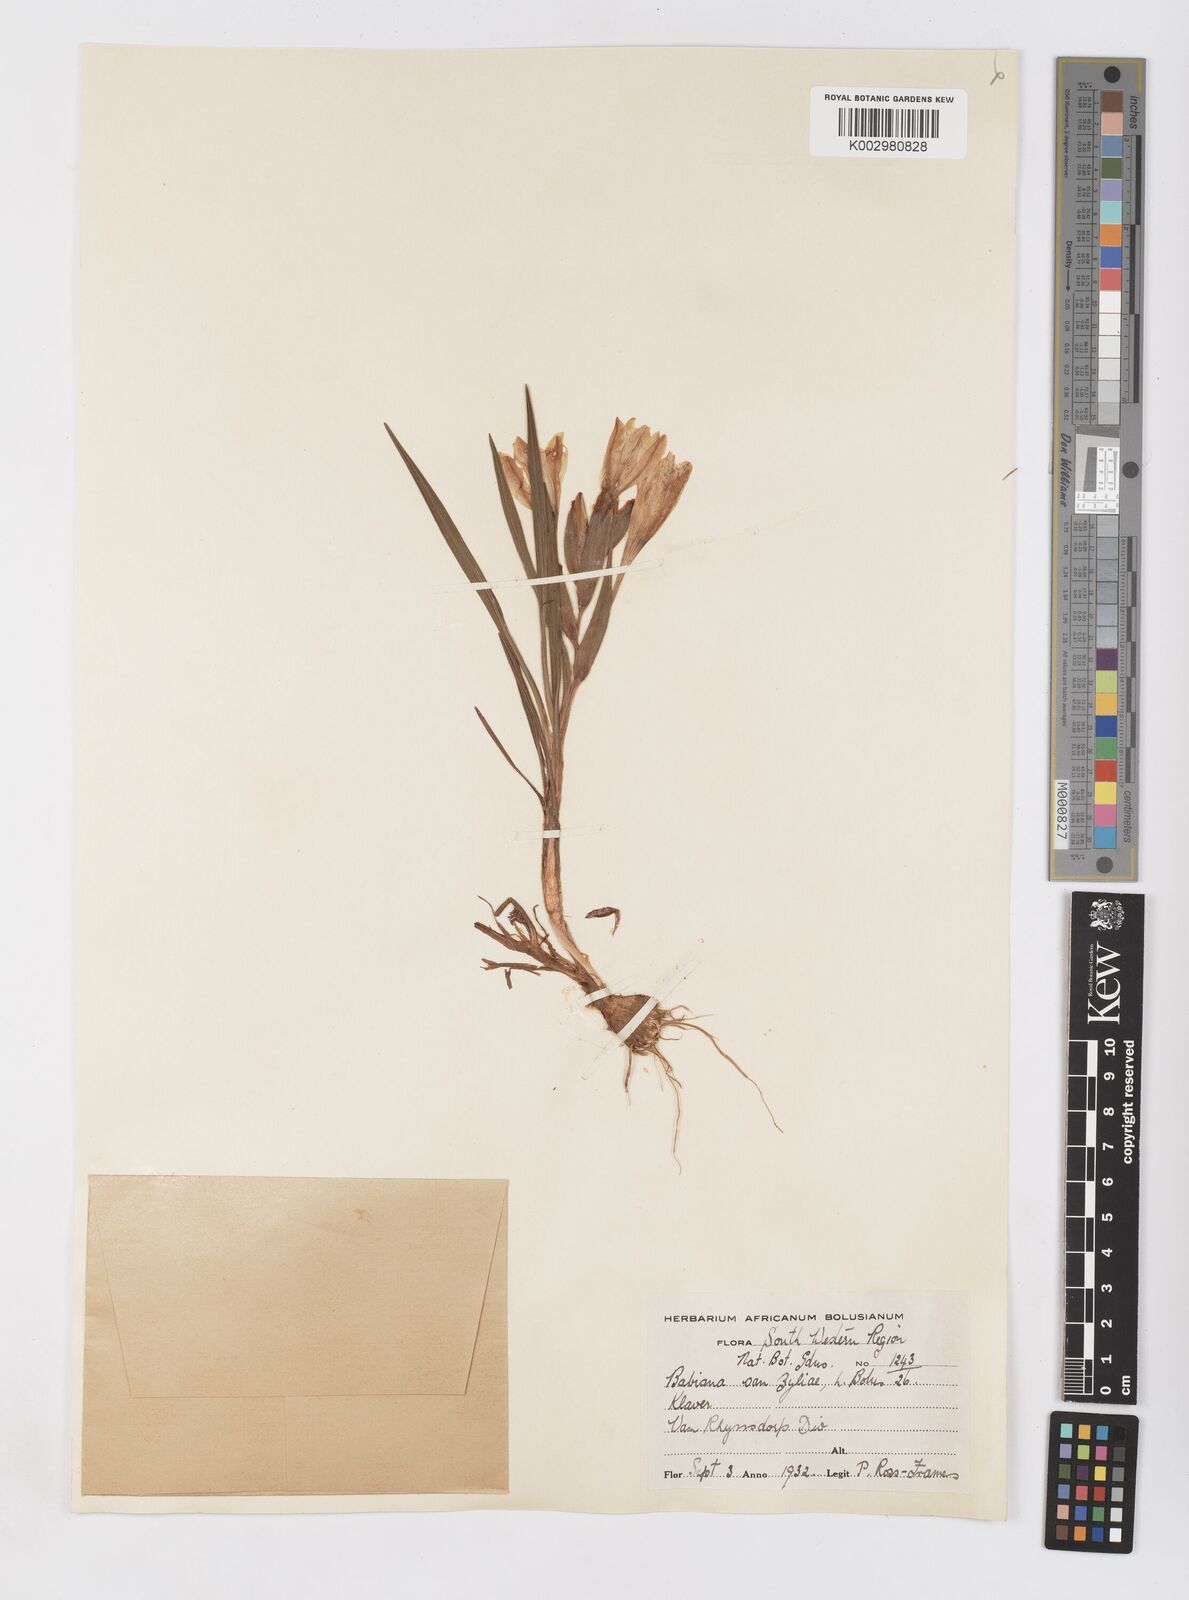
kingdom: Plantae
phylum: Tracheophyta
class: Liliopsida
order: Asparagales
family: Iridaceae
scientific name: Iridaceae
